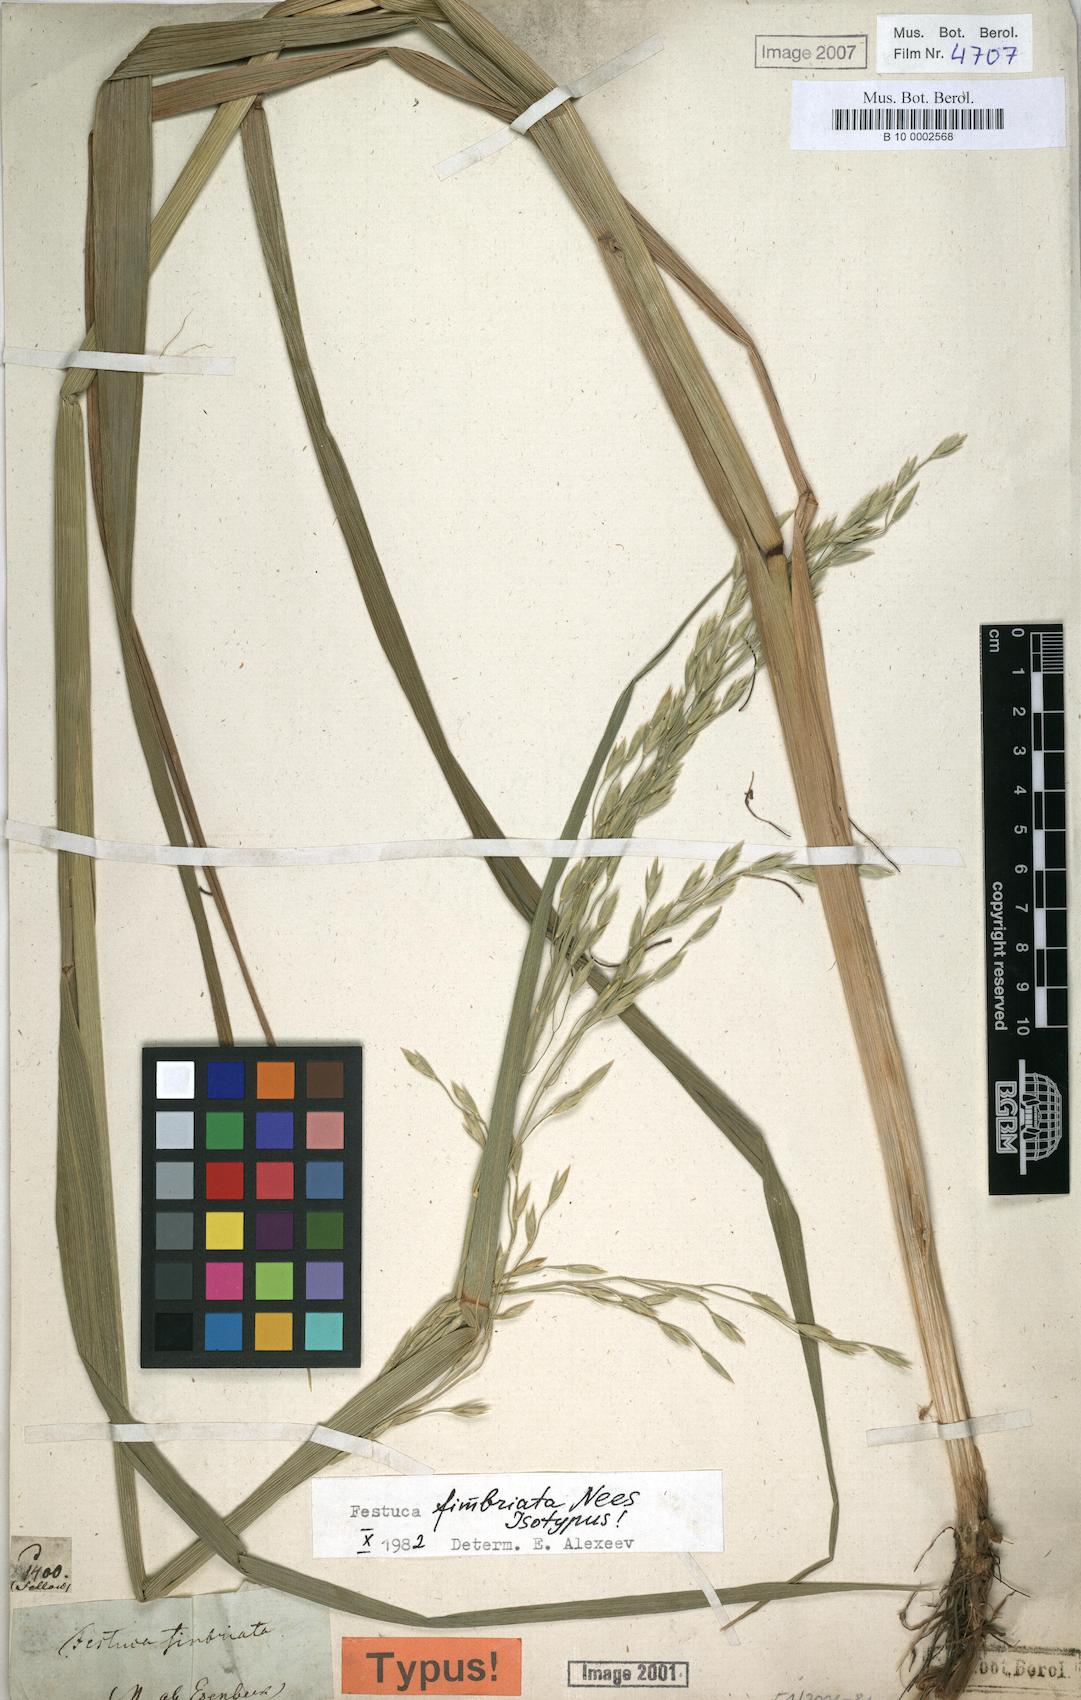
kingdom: Plantae
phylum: Tracheophyta
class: Liliopsida
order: Poales
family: Poaceae
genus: Festuca
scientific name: Festuca fimbriata
